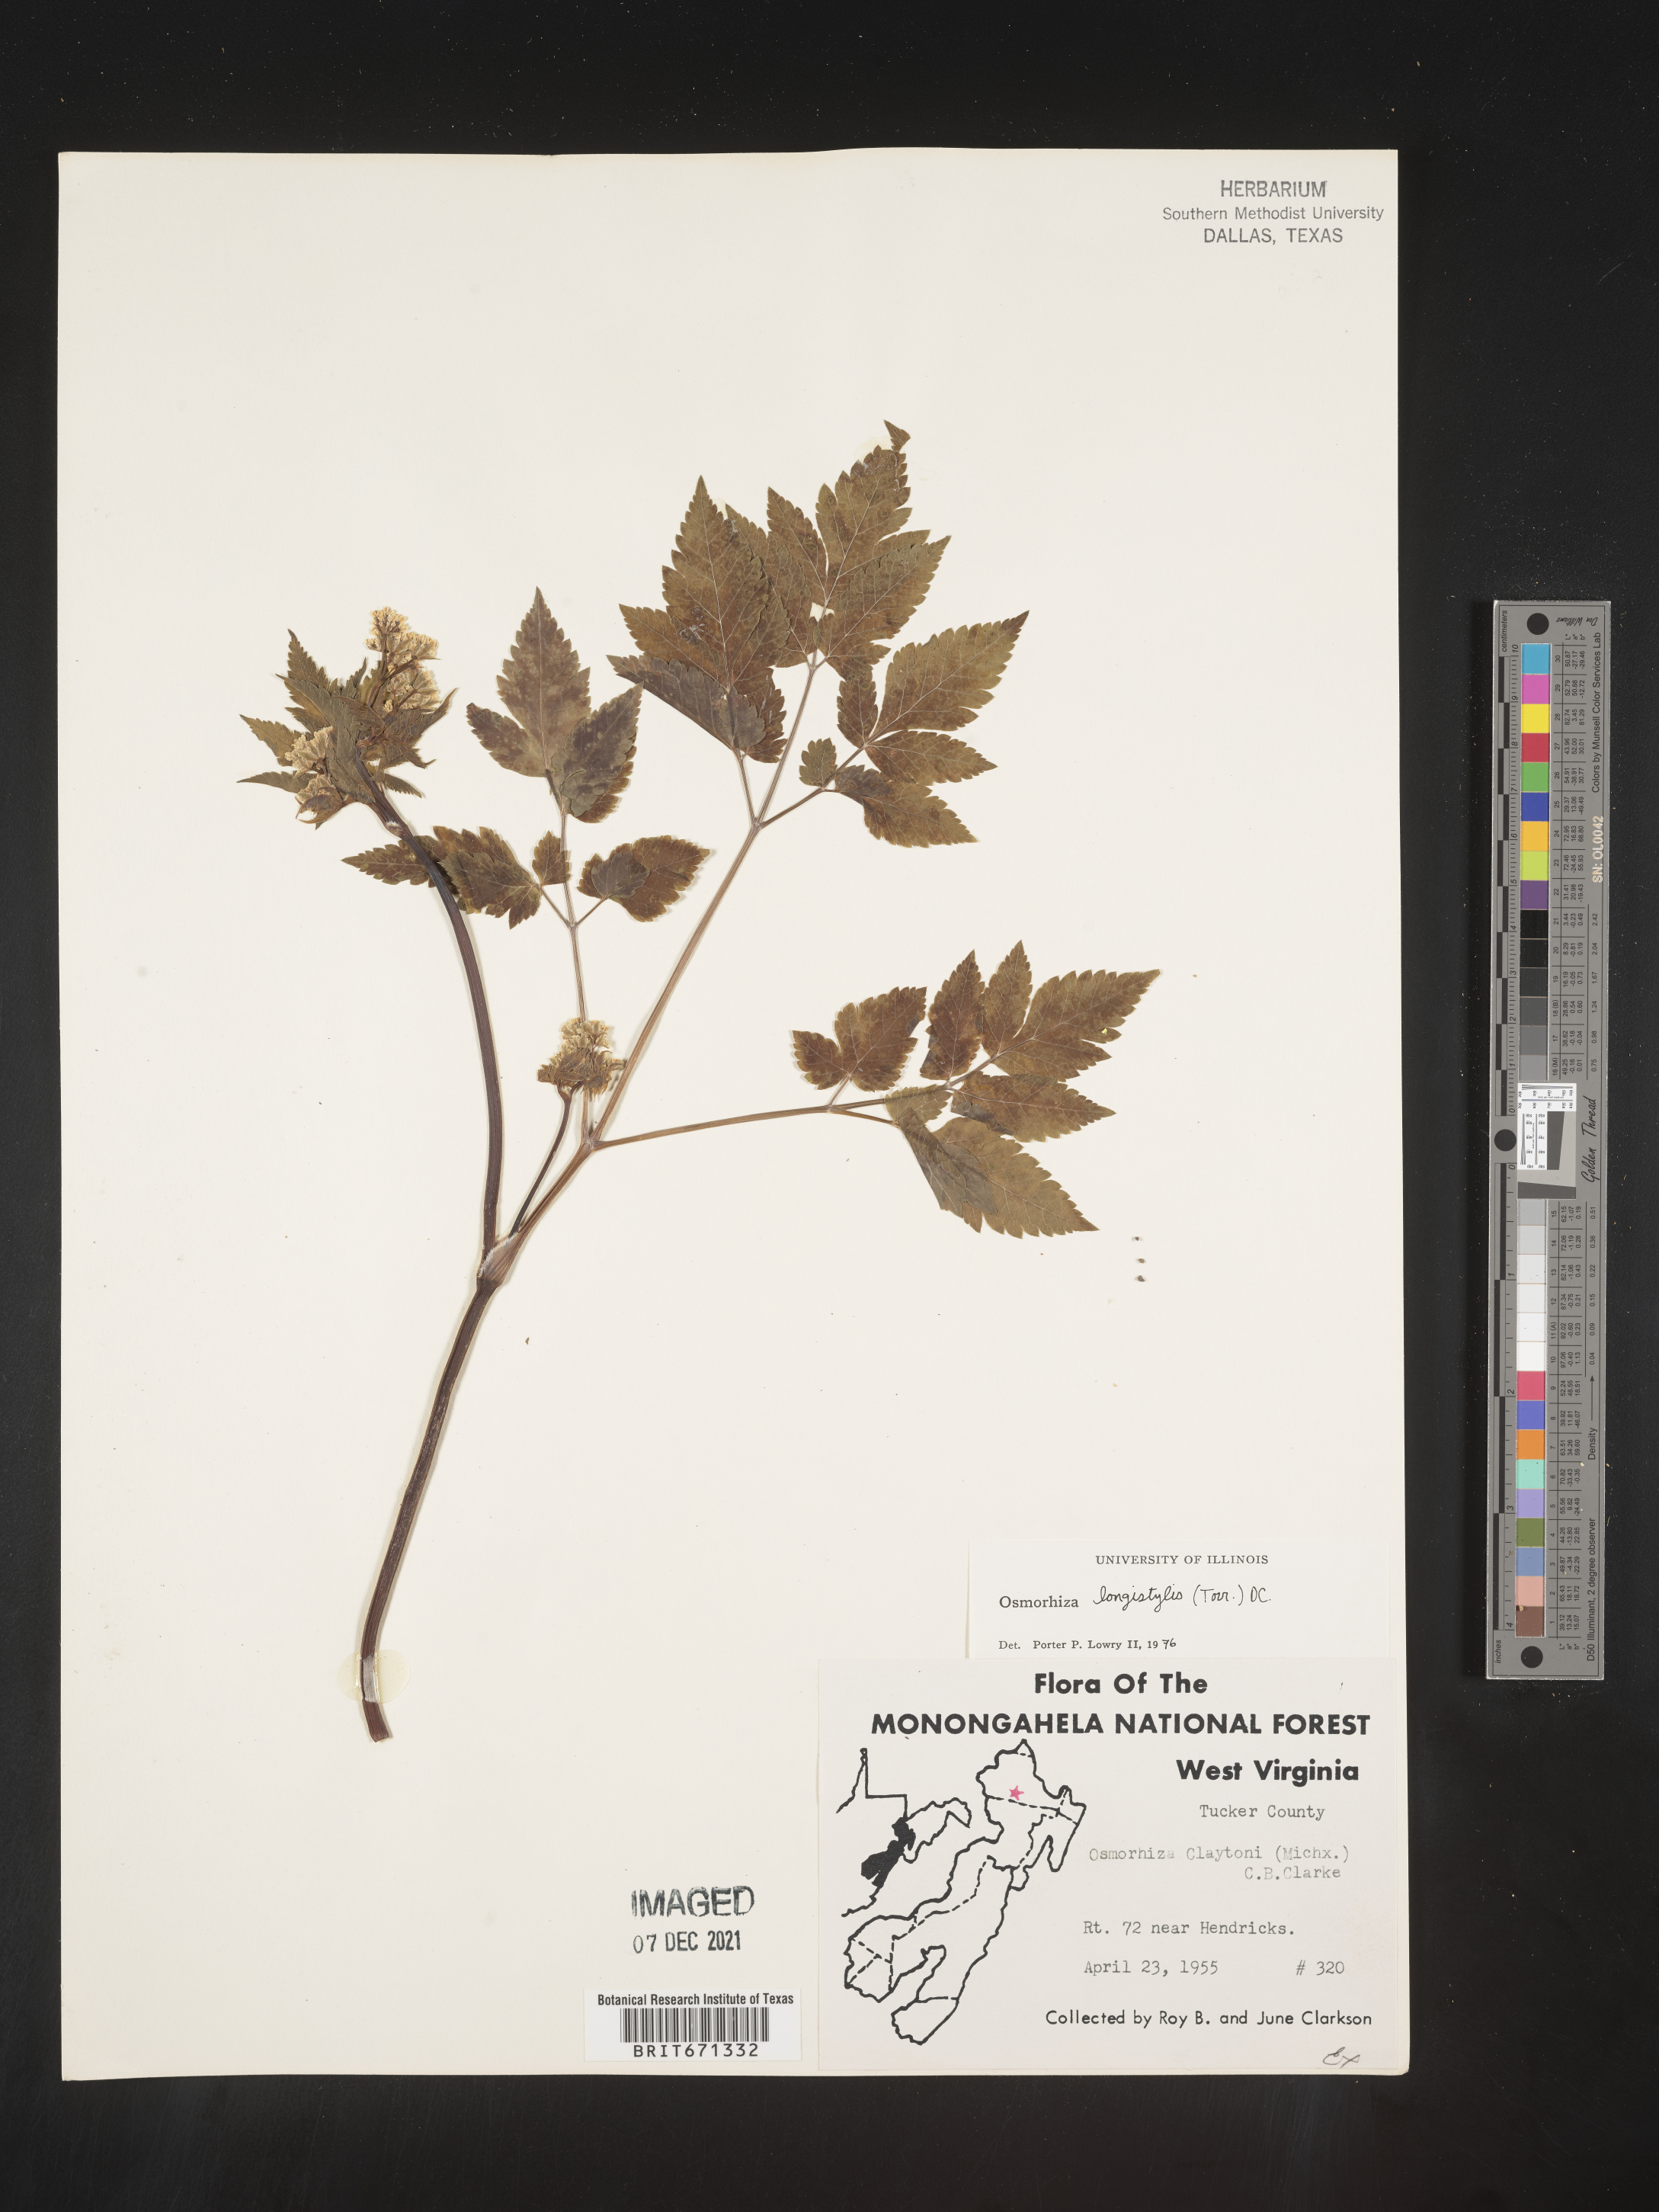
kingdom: Plantae
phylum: Tracheophyta
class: Magnoliopsida
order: Apiales
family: Apiaceae
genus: Osmorhiza
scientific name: Osmorhiza longistylis
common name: Smooth sweet cicely
